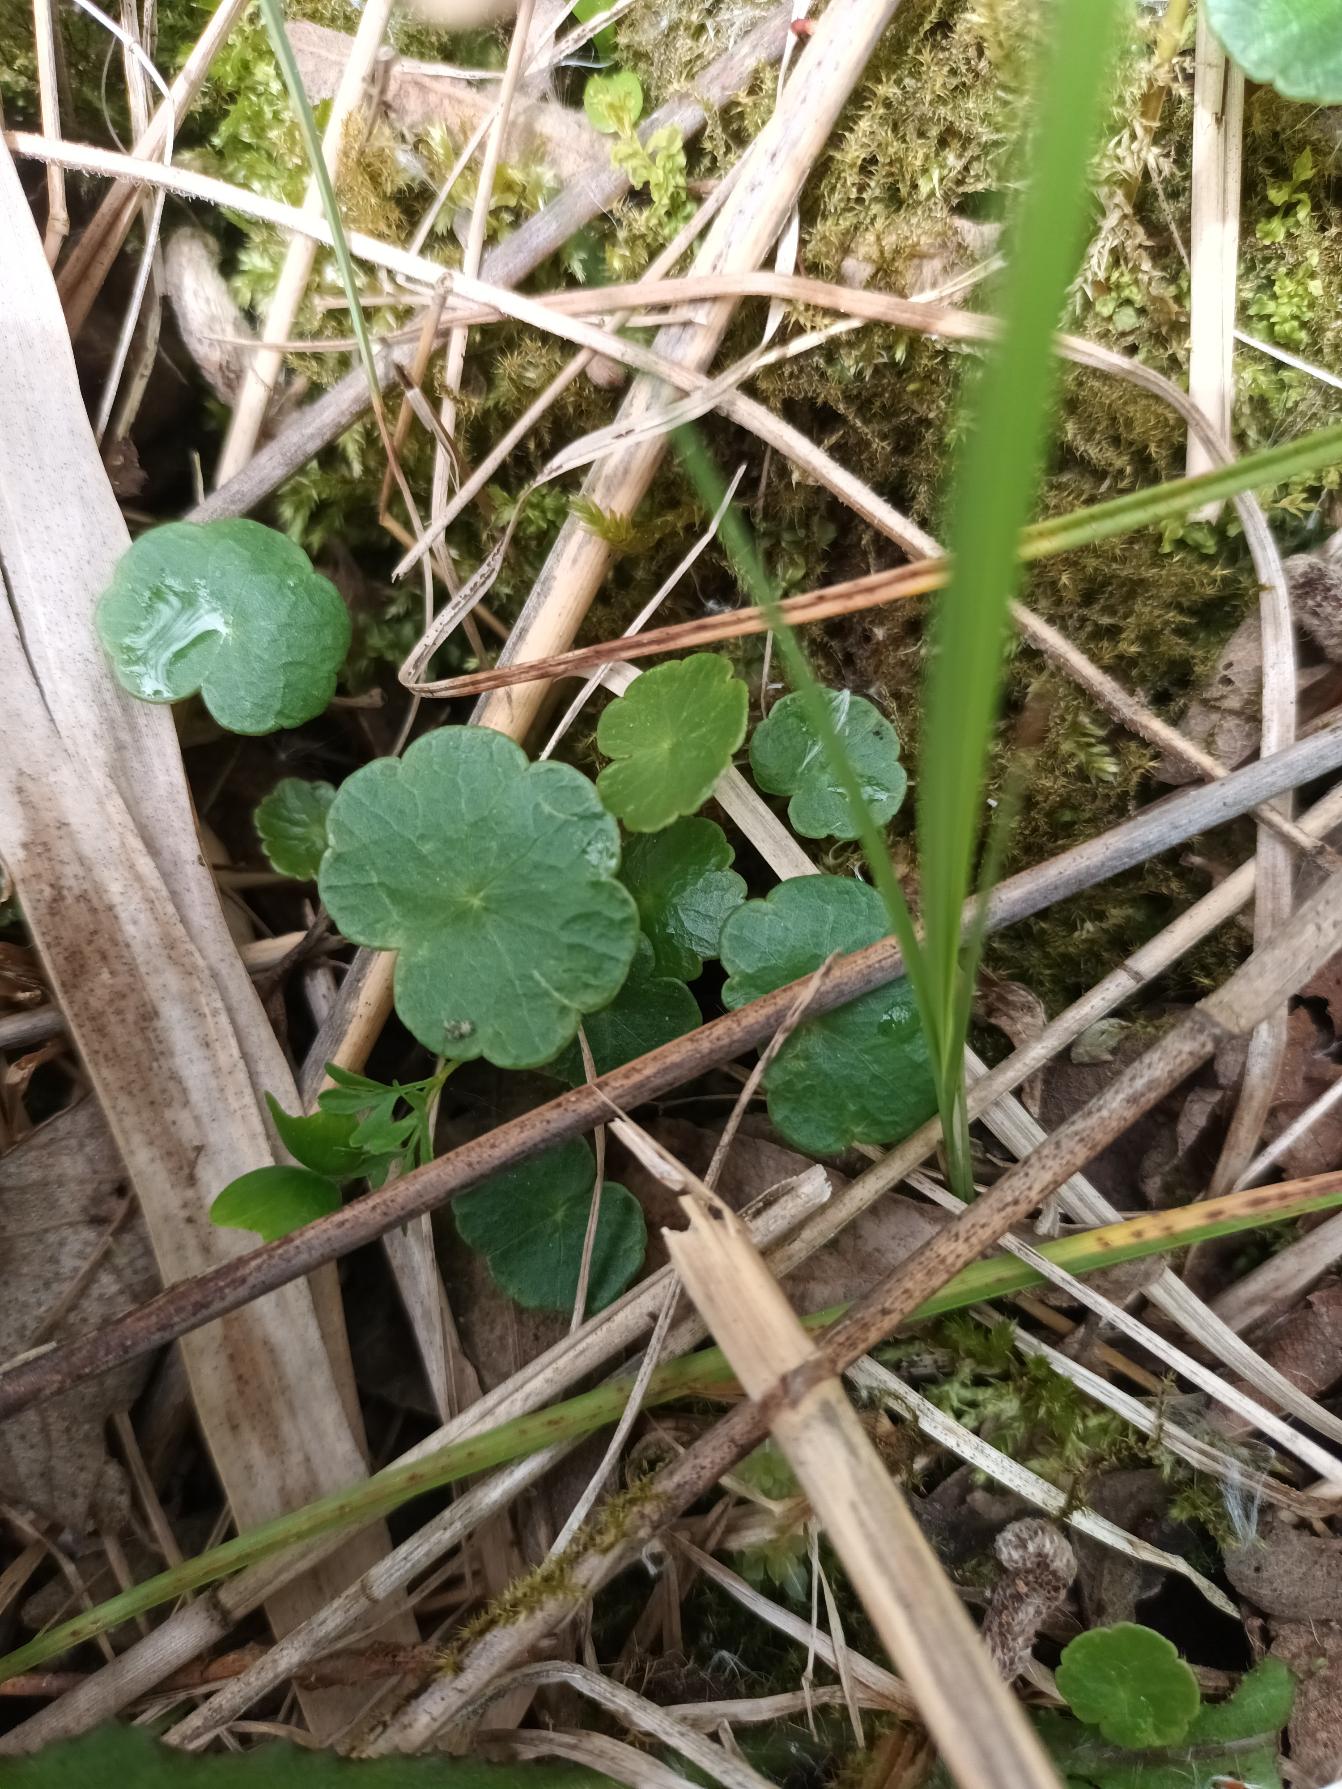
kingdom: Plantae
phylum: Tracheophyta
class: Magnoliopsida
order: Apiales
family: Araliaceae
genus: Hydrocotyle
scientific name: Hydrocotyle vulgaris
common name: Vandnavle
